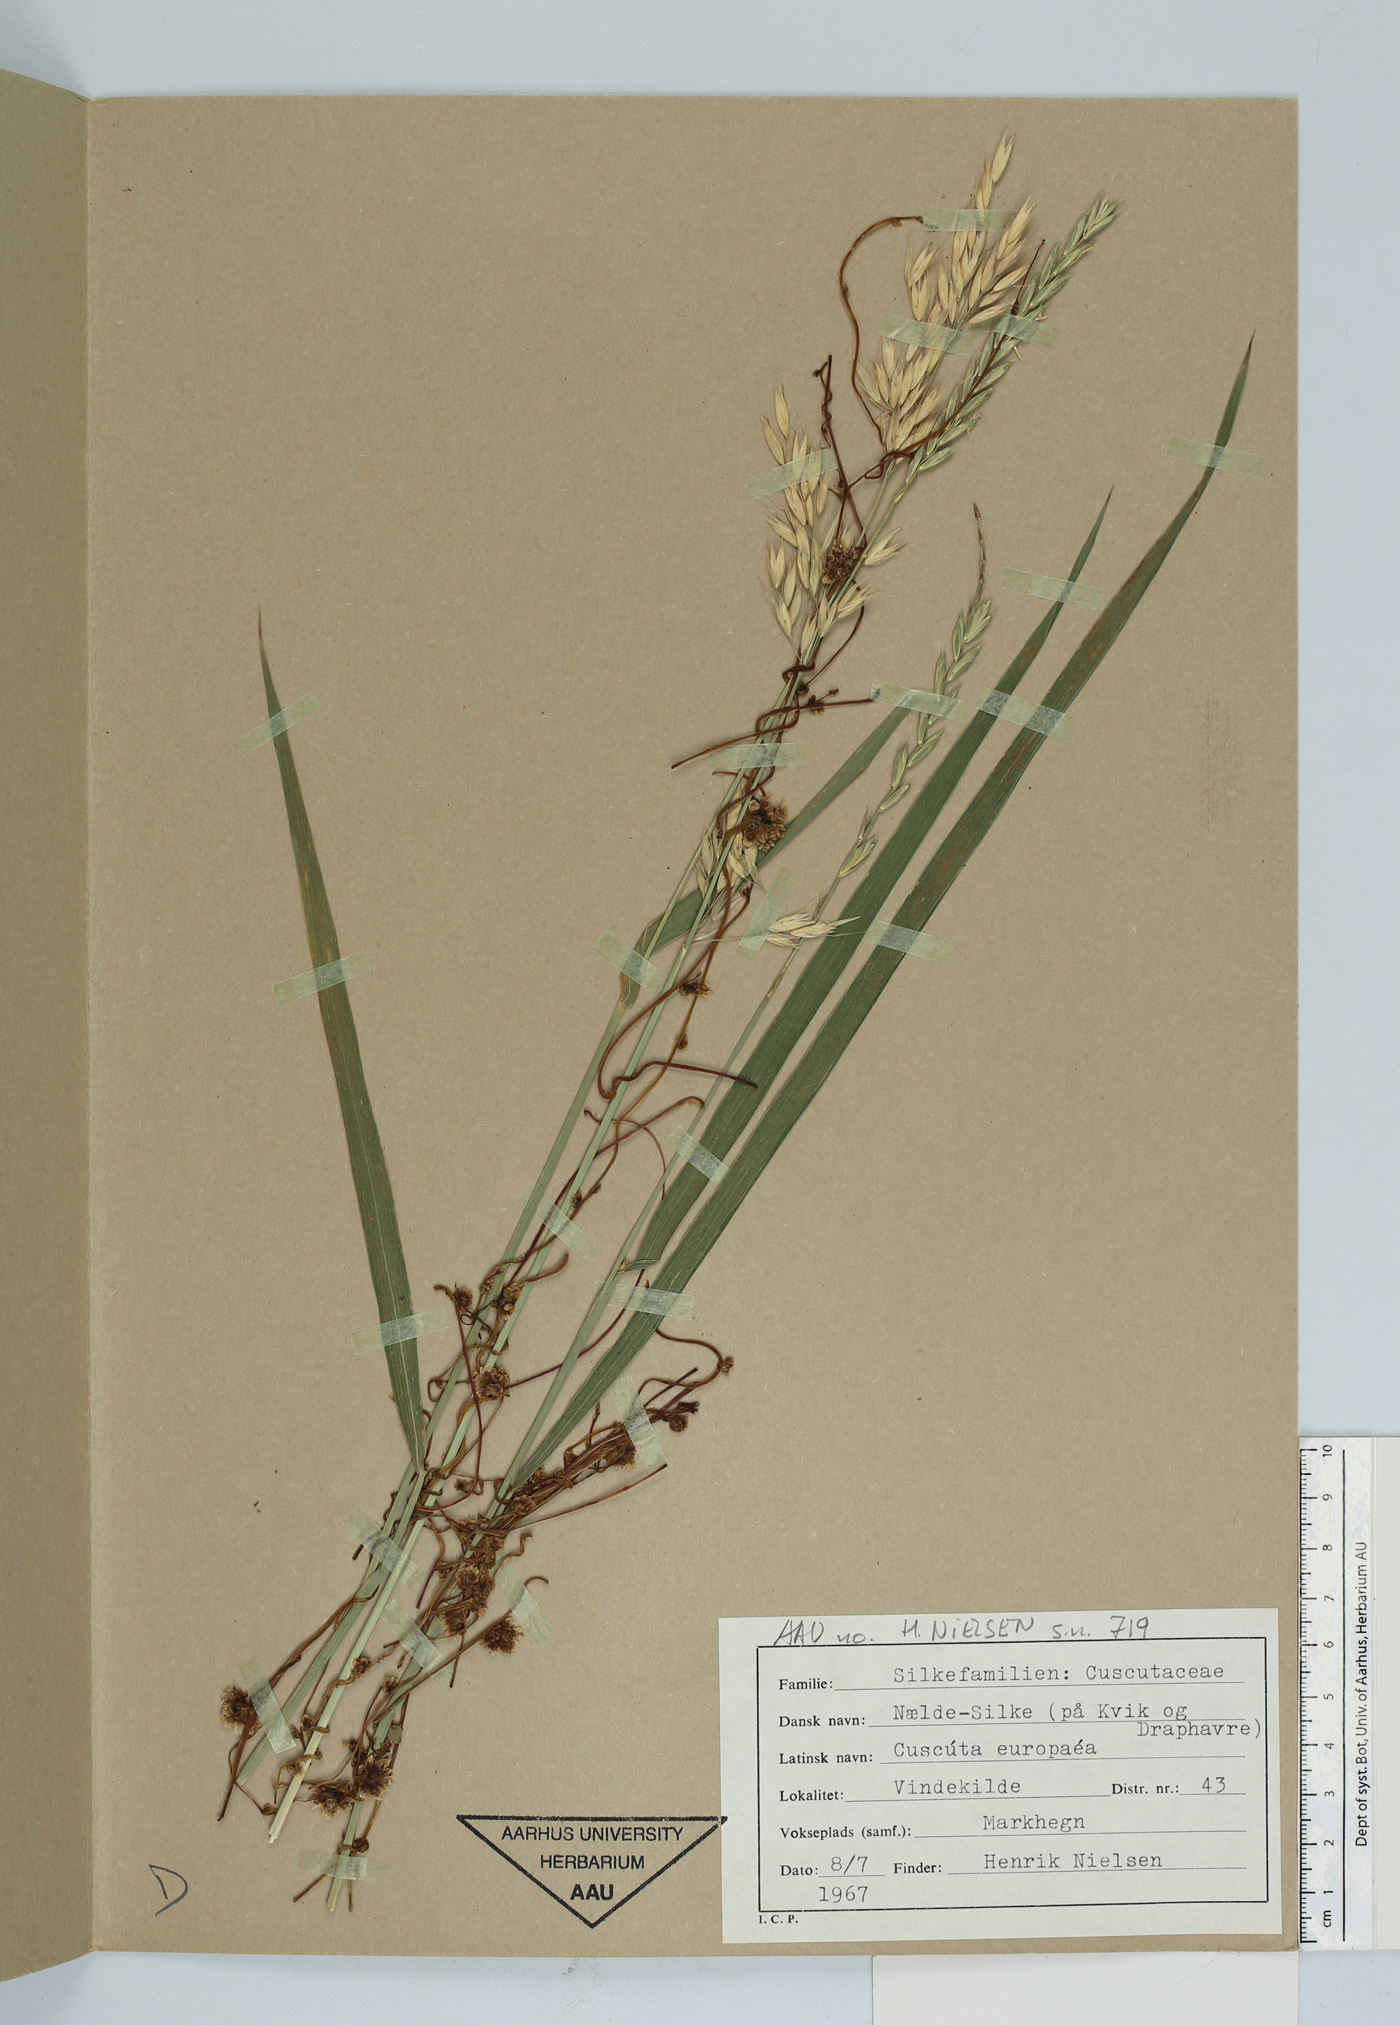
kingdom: Plantae
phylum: Tracheophyta
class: Magnoliopsida
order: Solanales
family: Convolvulaceae
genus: Cuscuta
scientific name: Cuscuta europaea
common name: Greater dodder
